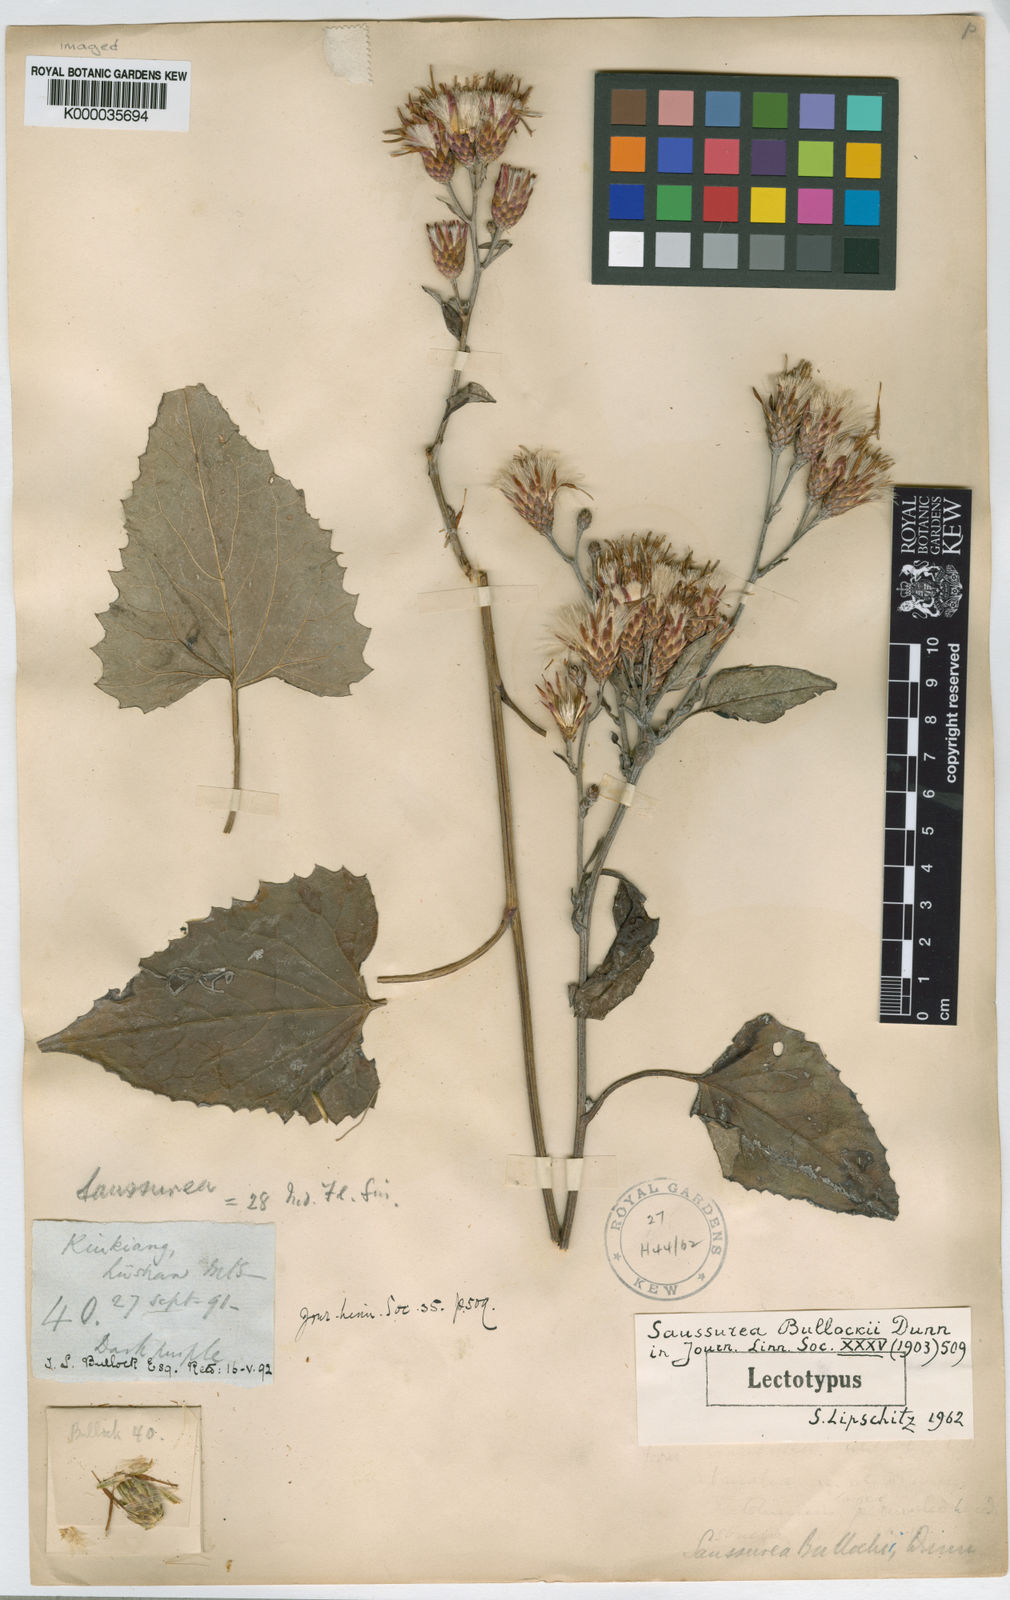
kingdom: Plantae
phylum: Tracheophyta
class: Magnoliopsida
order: Asterales
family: Asteraceae
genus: Saussurea
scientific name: Saussurea bullockii
